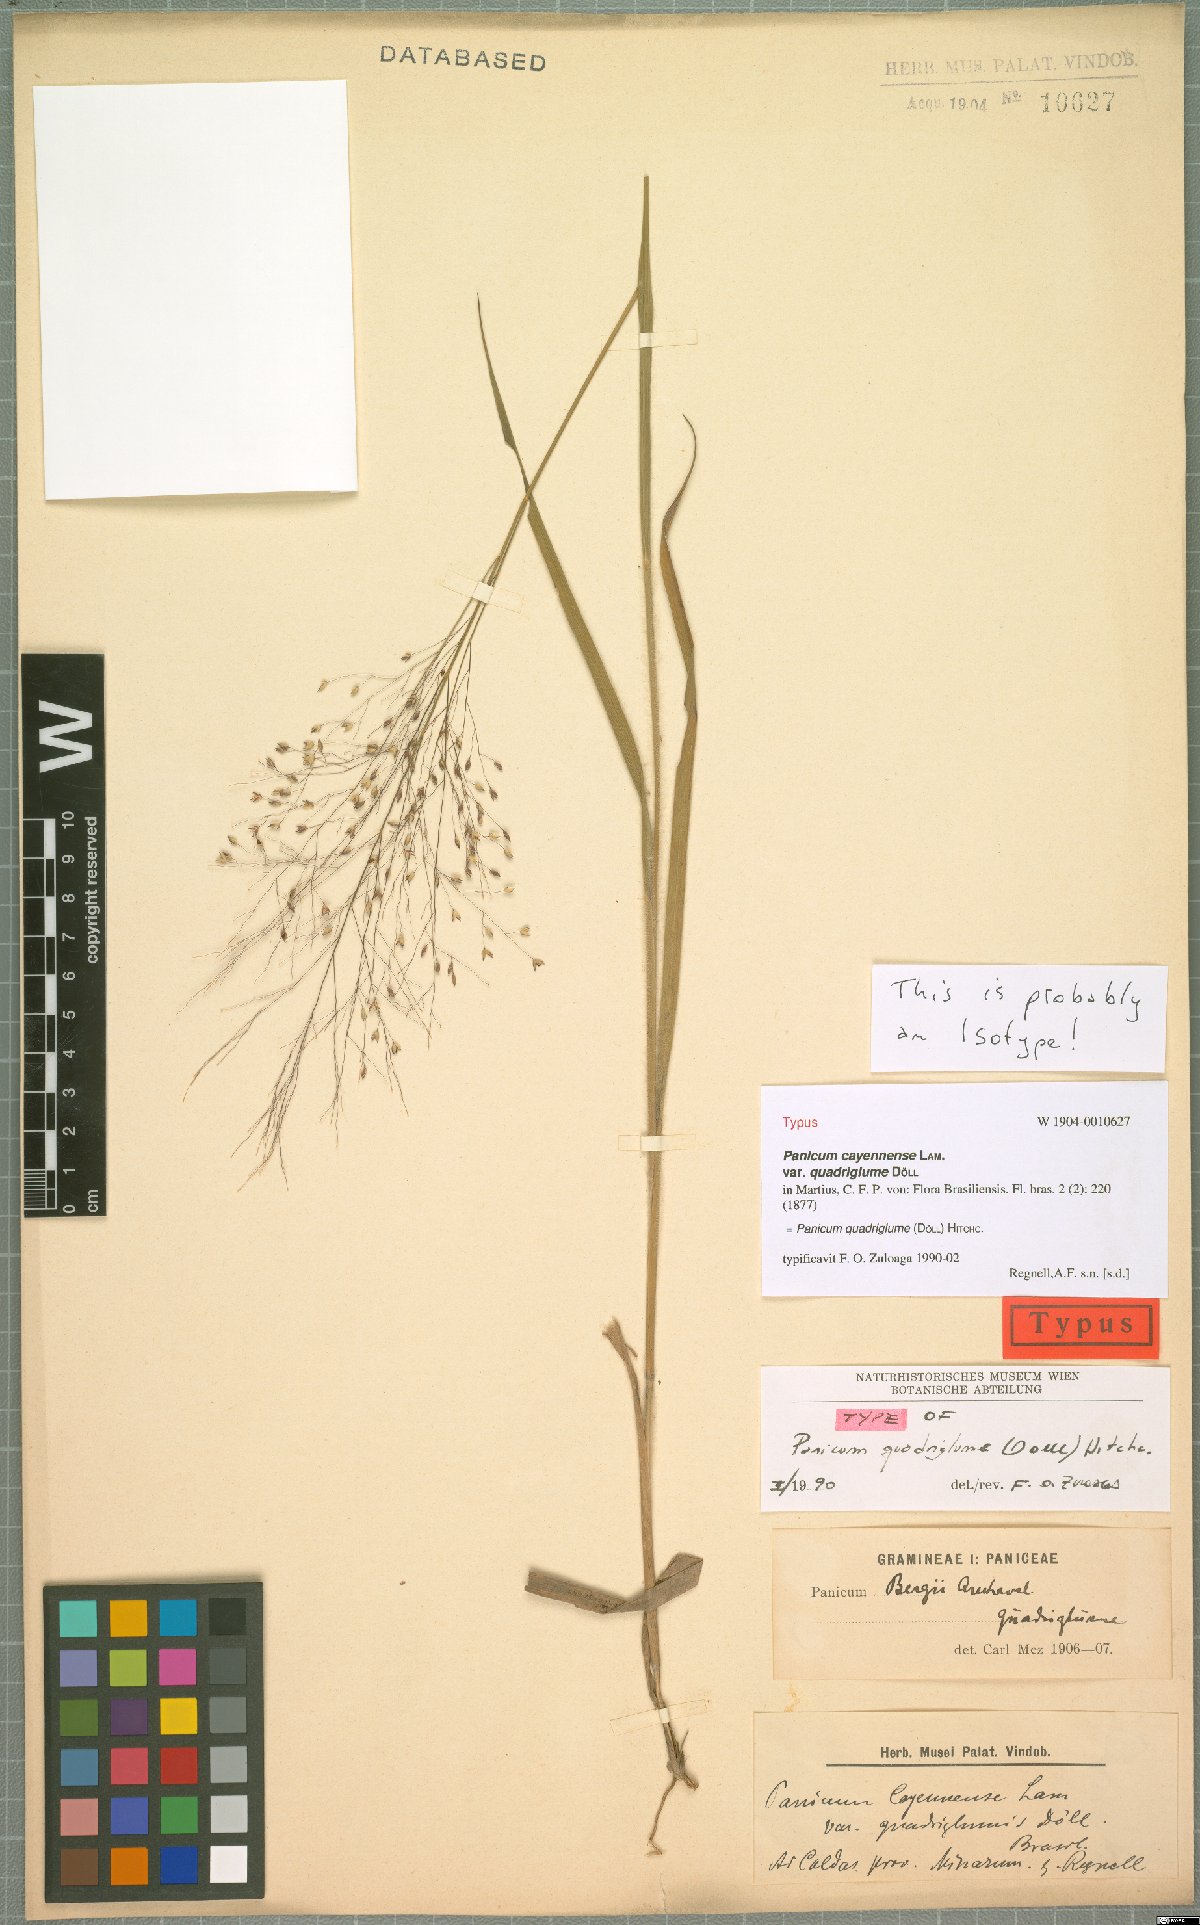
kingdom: Plantae
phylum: Tracheophyta
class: Liliopsida
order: Poales
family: Poaceae
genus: Panicum
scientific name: Panicum quadriglume
